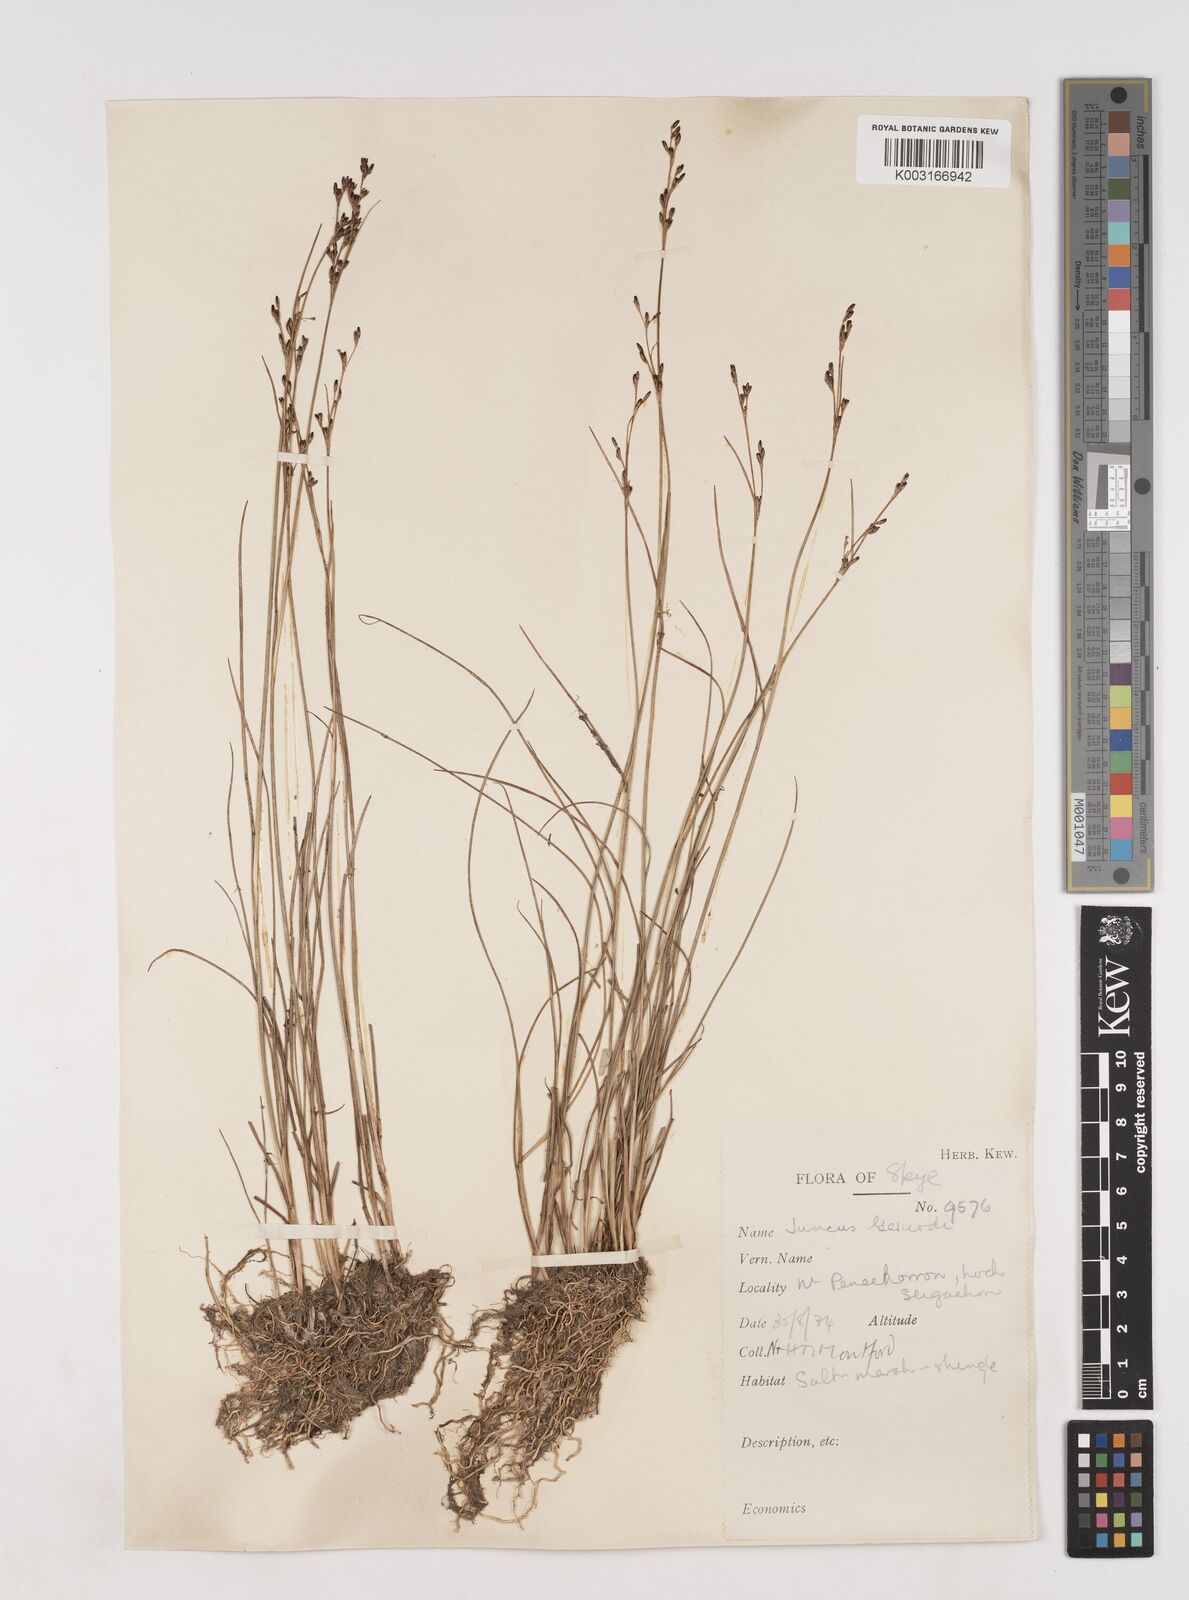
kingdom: Plantae
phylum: Tracheophyta
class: Liliopsida
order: Poales
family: Juncaceae
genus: Juncus
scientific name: Juncus gerardi
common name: Saltmarsh rush
